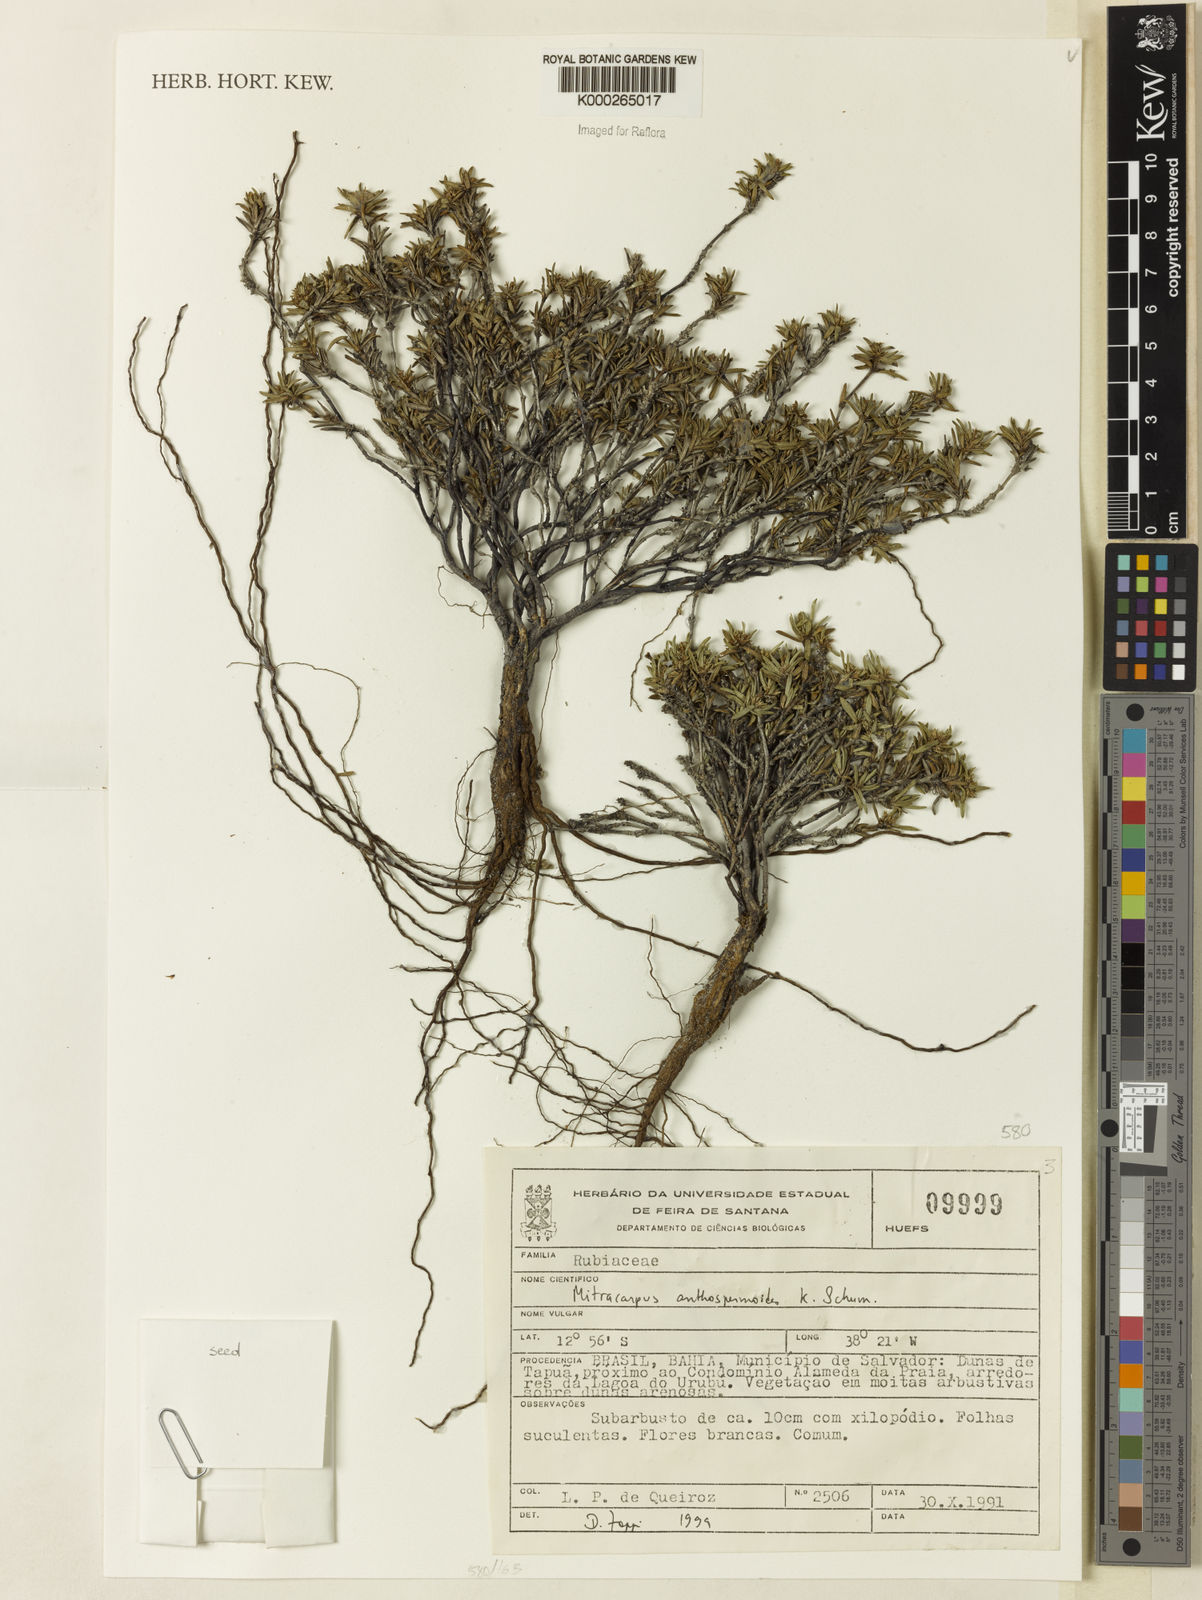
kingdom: Plantae
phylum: Tracheophyta
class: Magnoliopsida
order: Gentianales
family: Rubiaceae
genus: Mitracarpus
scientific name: Mitracarpus anthospermoides
